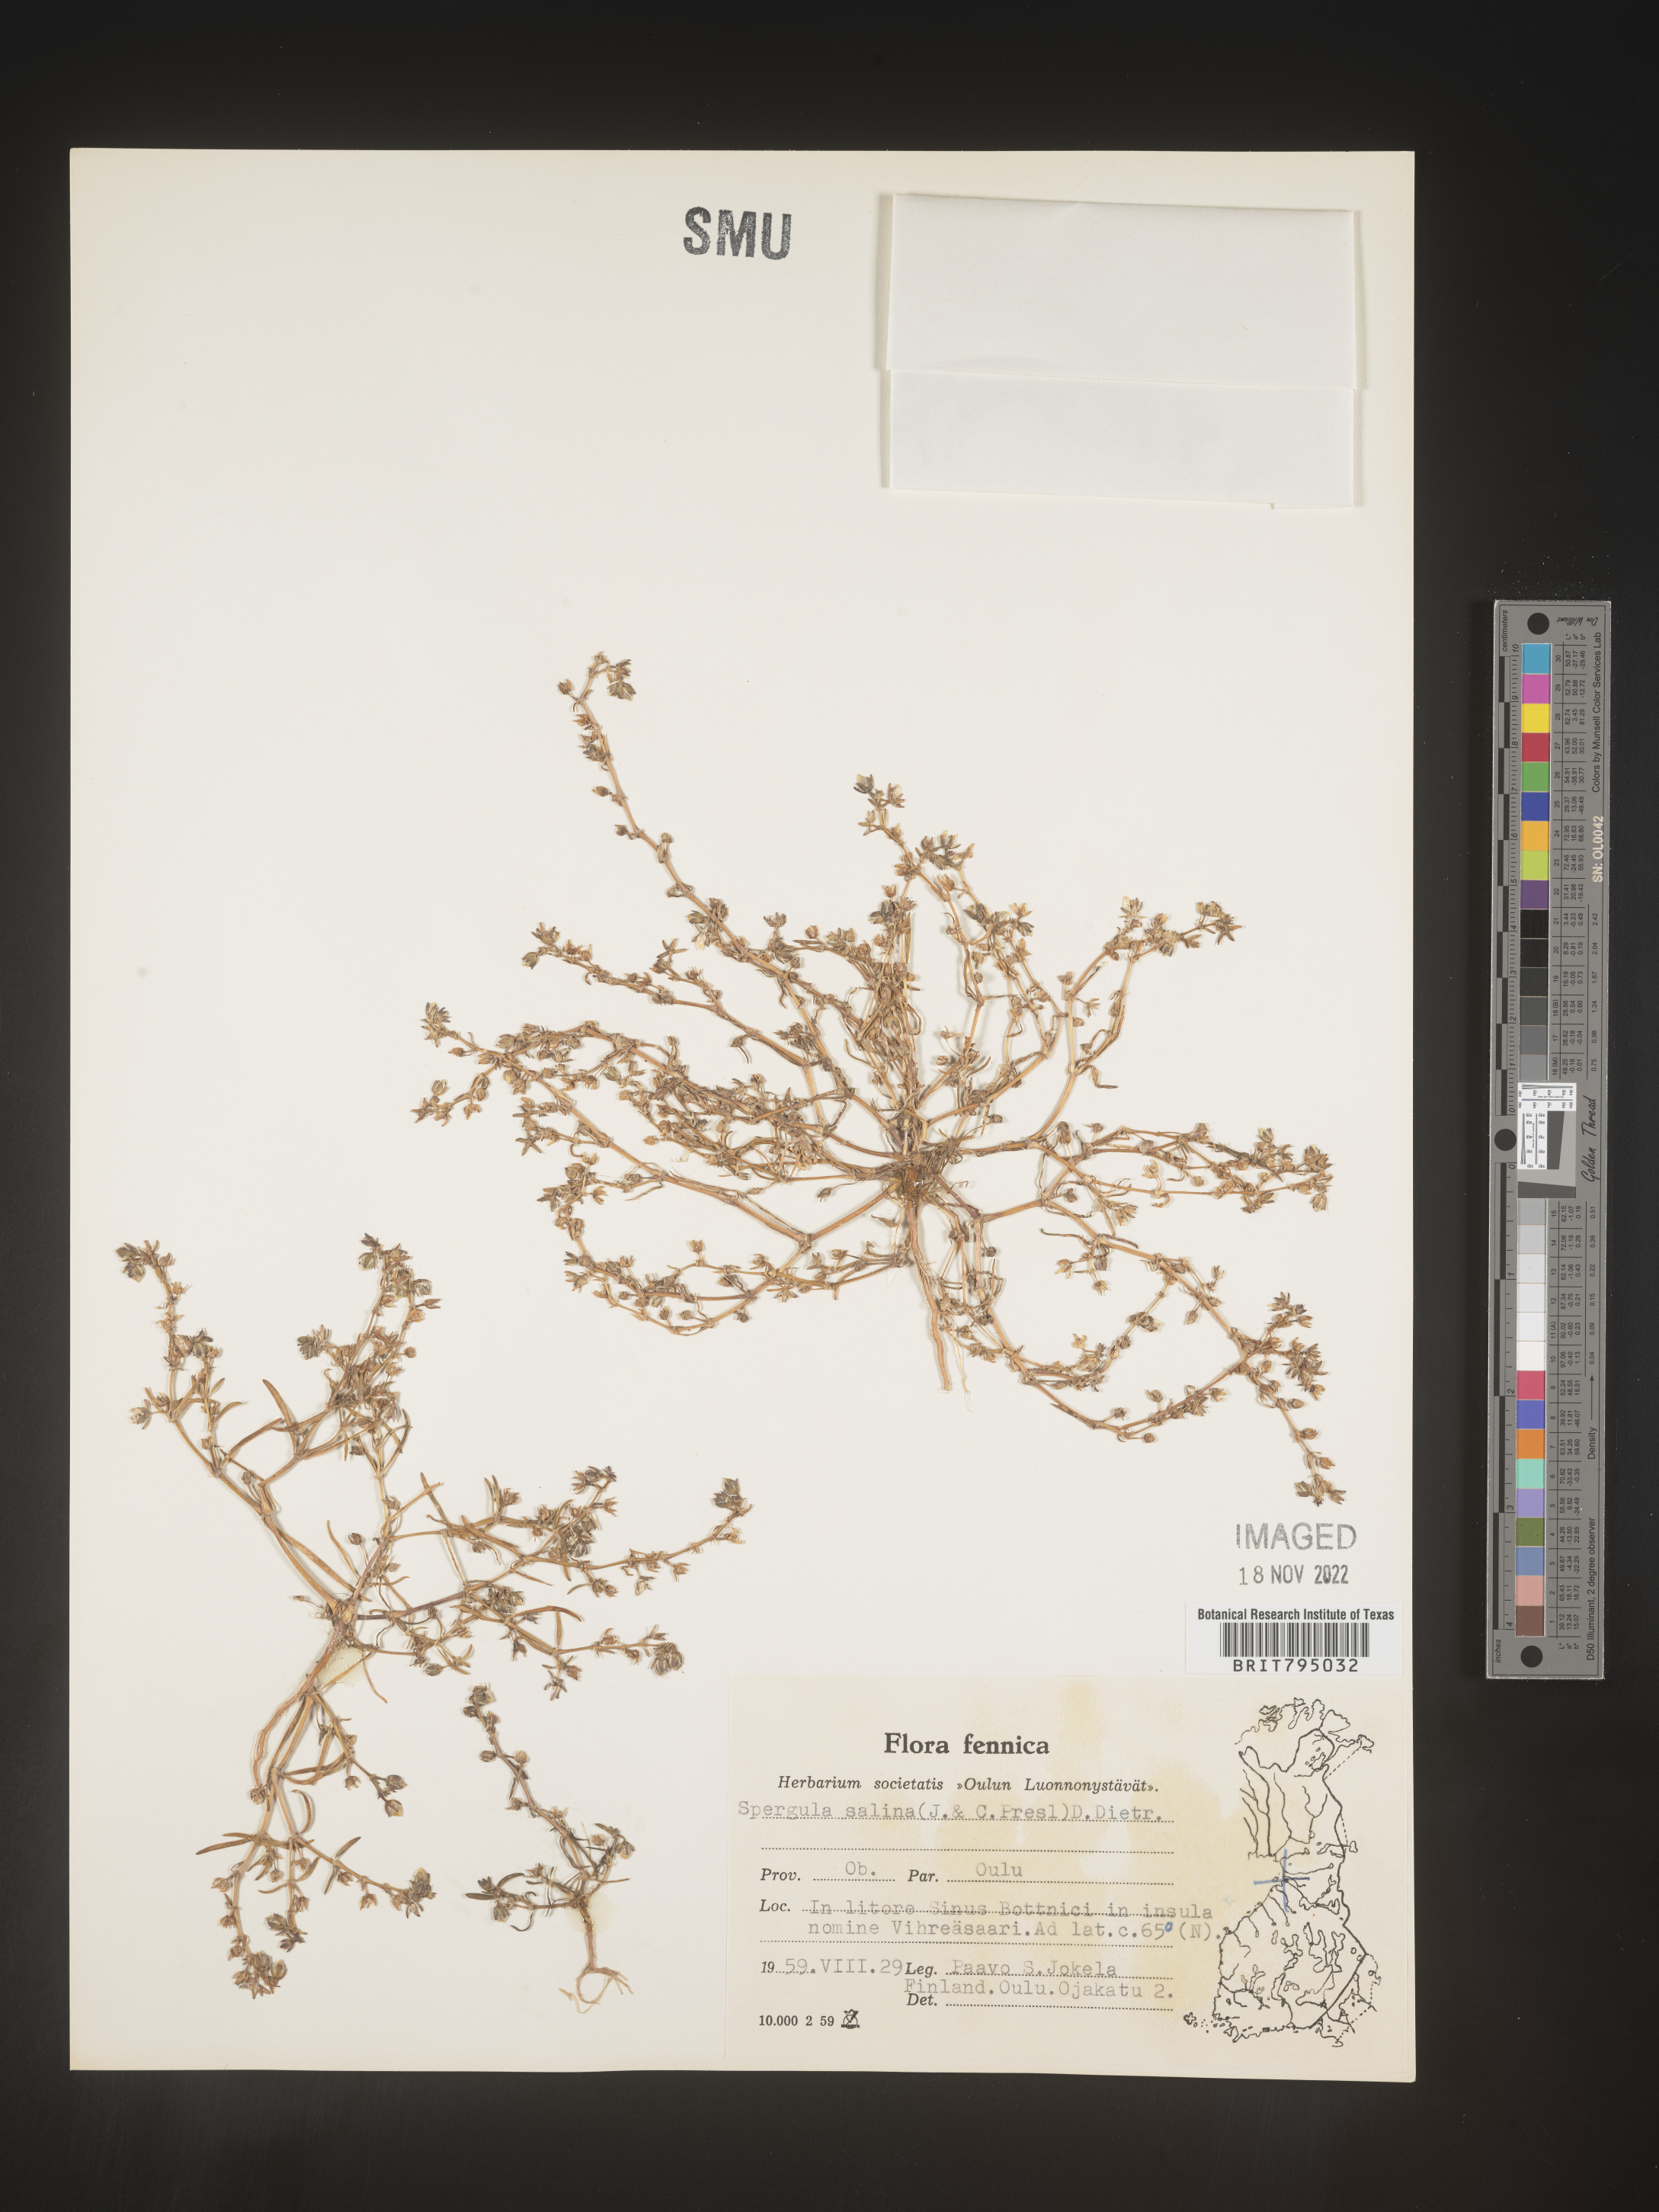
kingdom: Plantae
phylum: Tracheophyta
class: Magnoliopsida
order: Caryophyllales
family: Caryophyllaceae
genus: Spergularia
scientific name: Spergularia marina
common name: Lesser sea-spurrey
